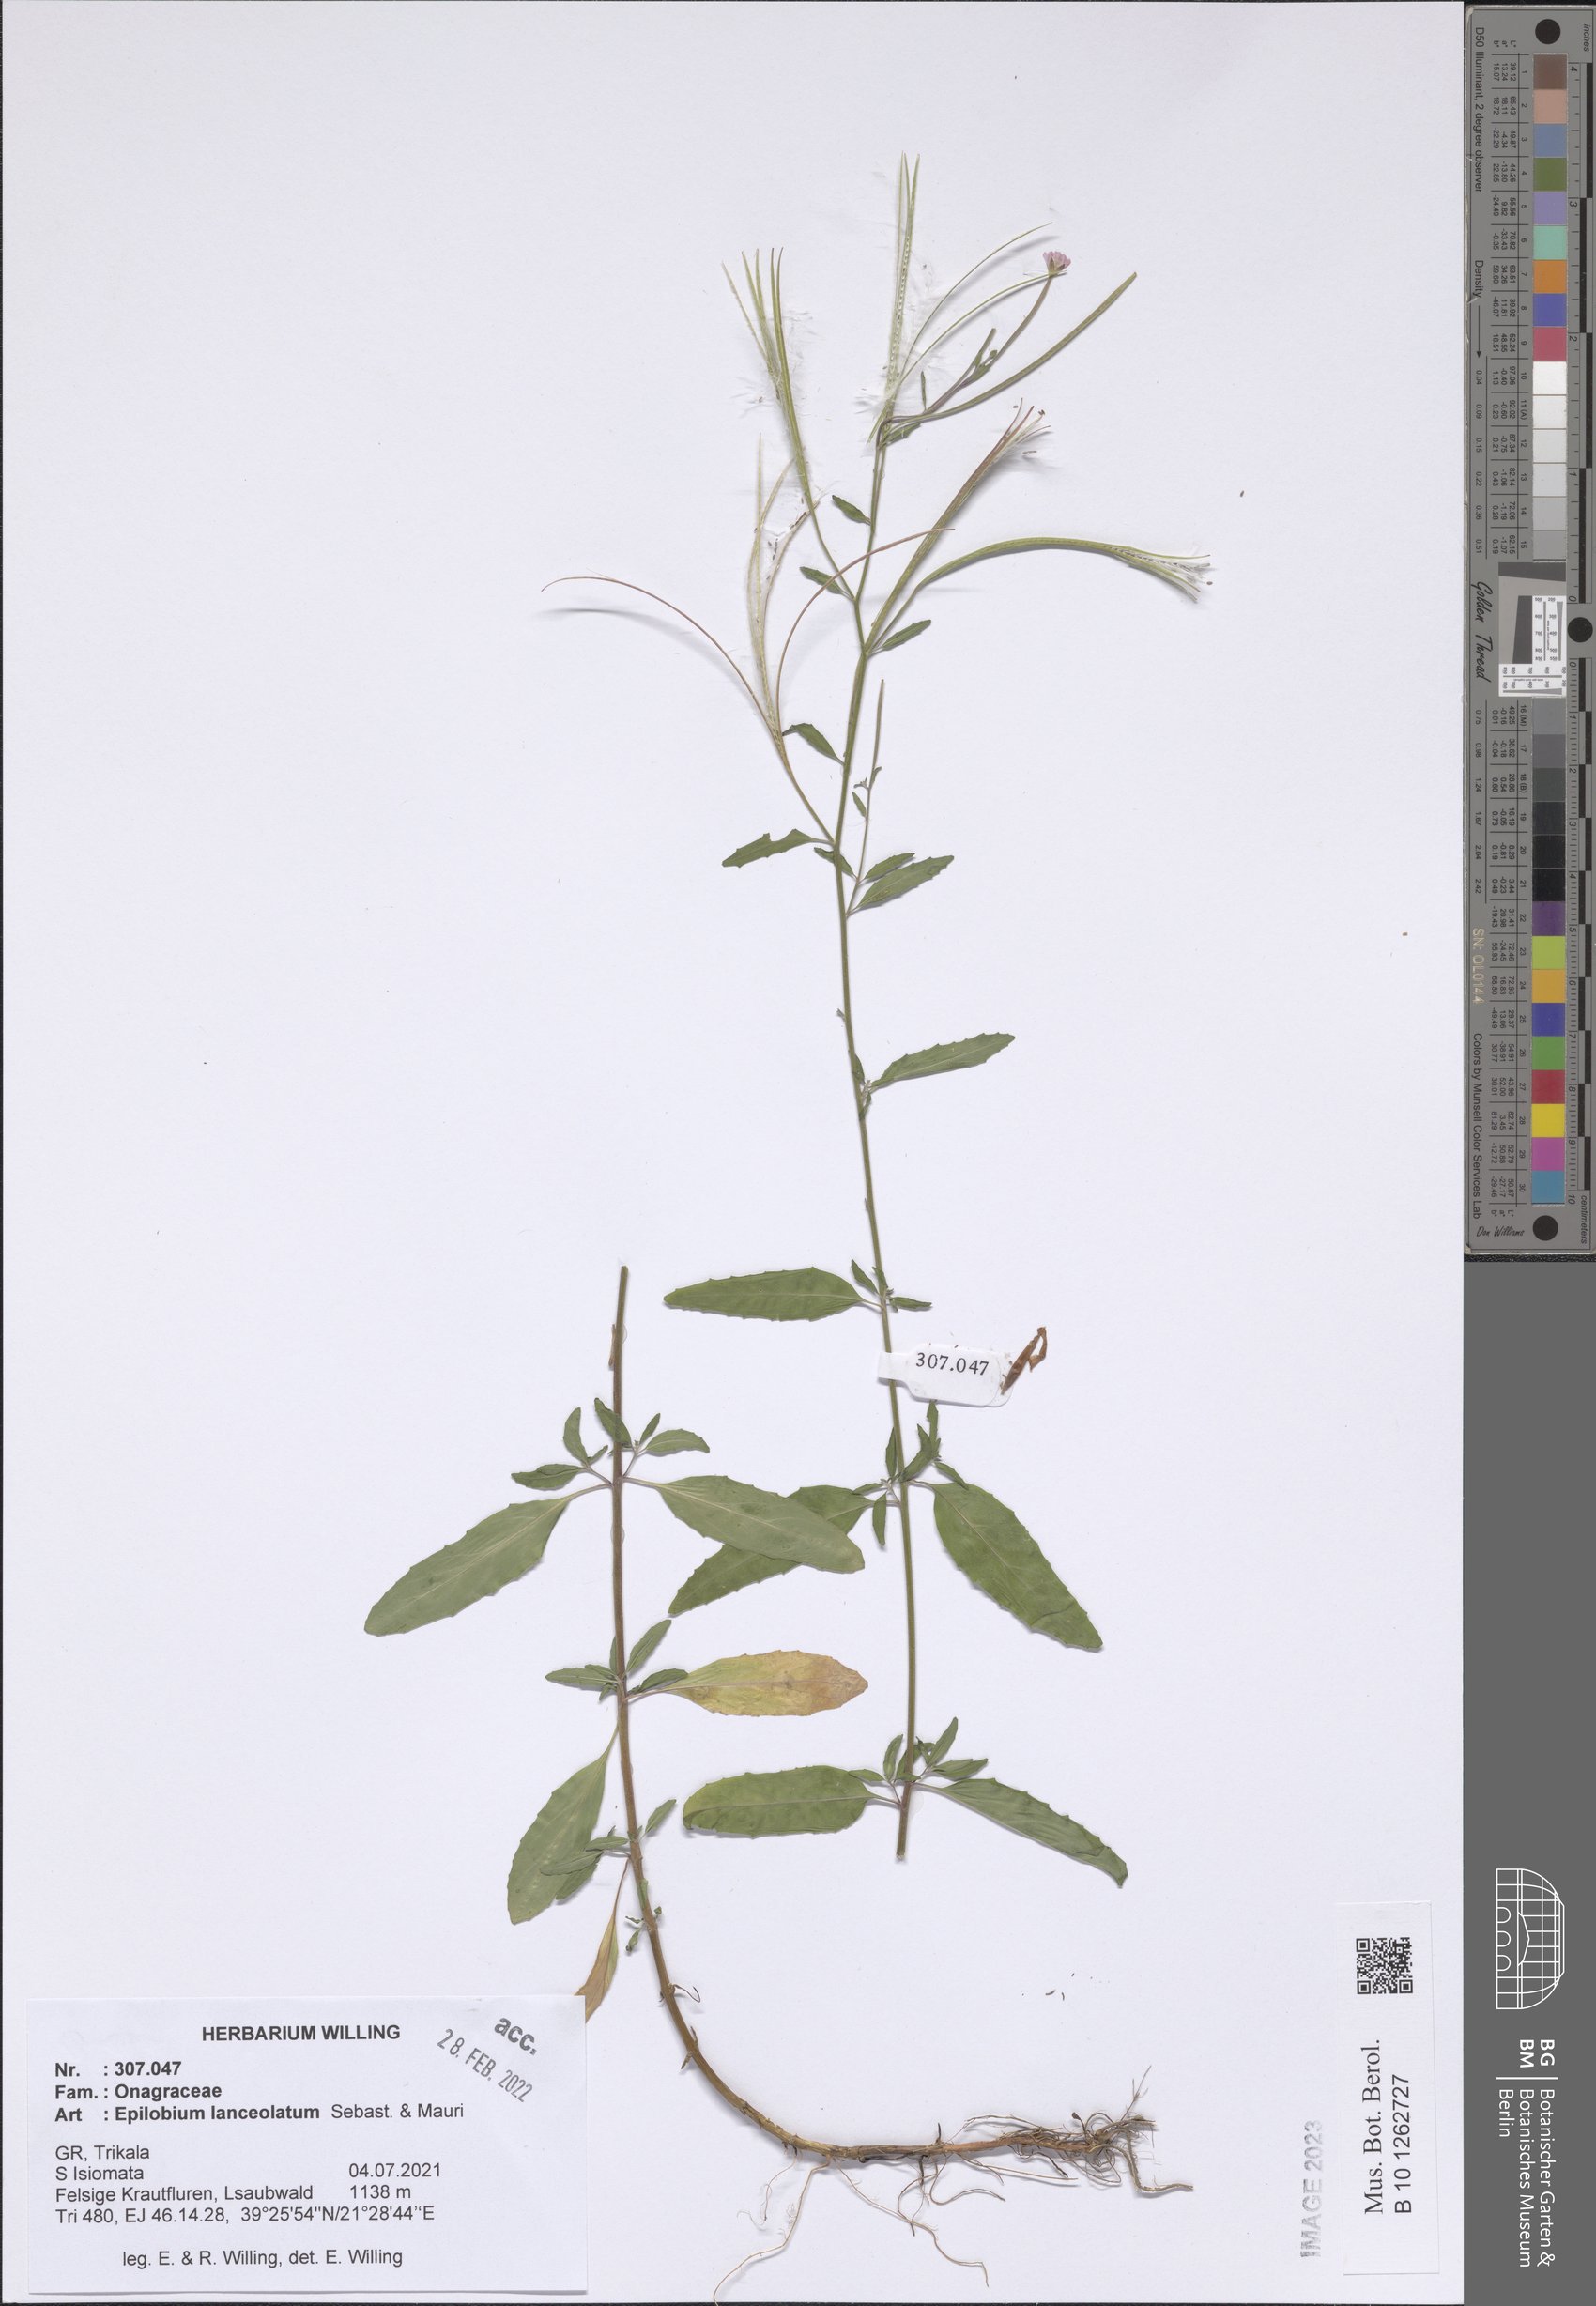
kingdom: Plantae
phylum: Tracheophyta
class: Magnoliopsida
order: Myrtales
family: Onagraceae
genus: Epilobium
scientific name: Epilobium lanceolatum
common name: Spear-leaved willowherb
